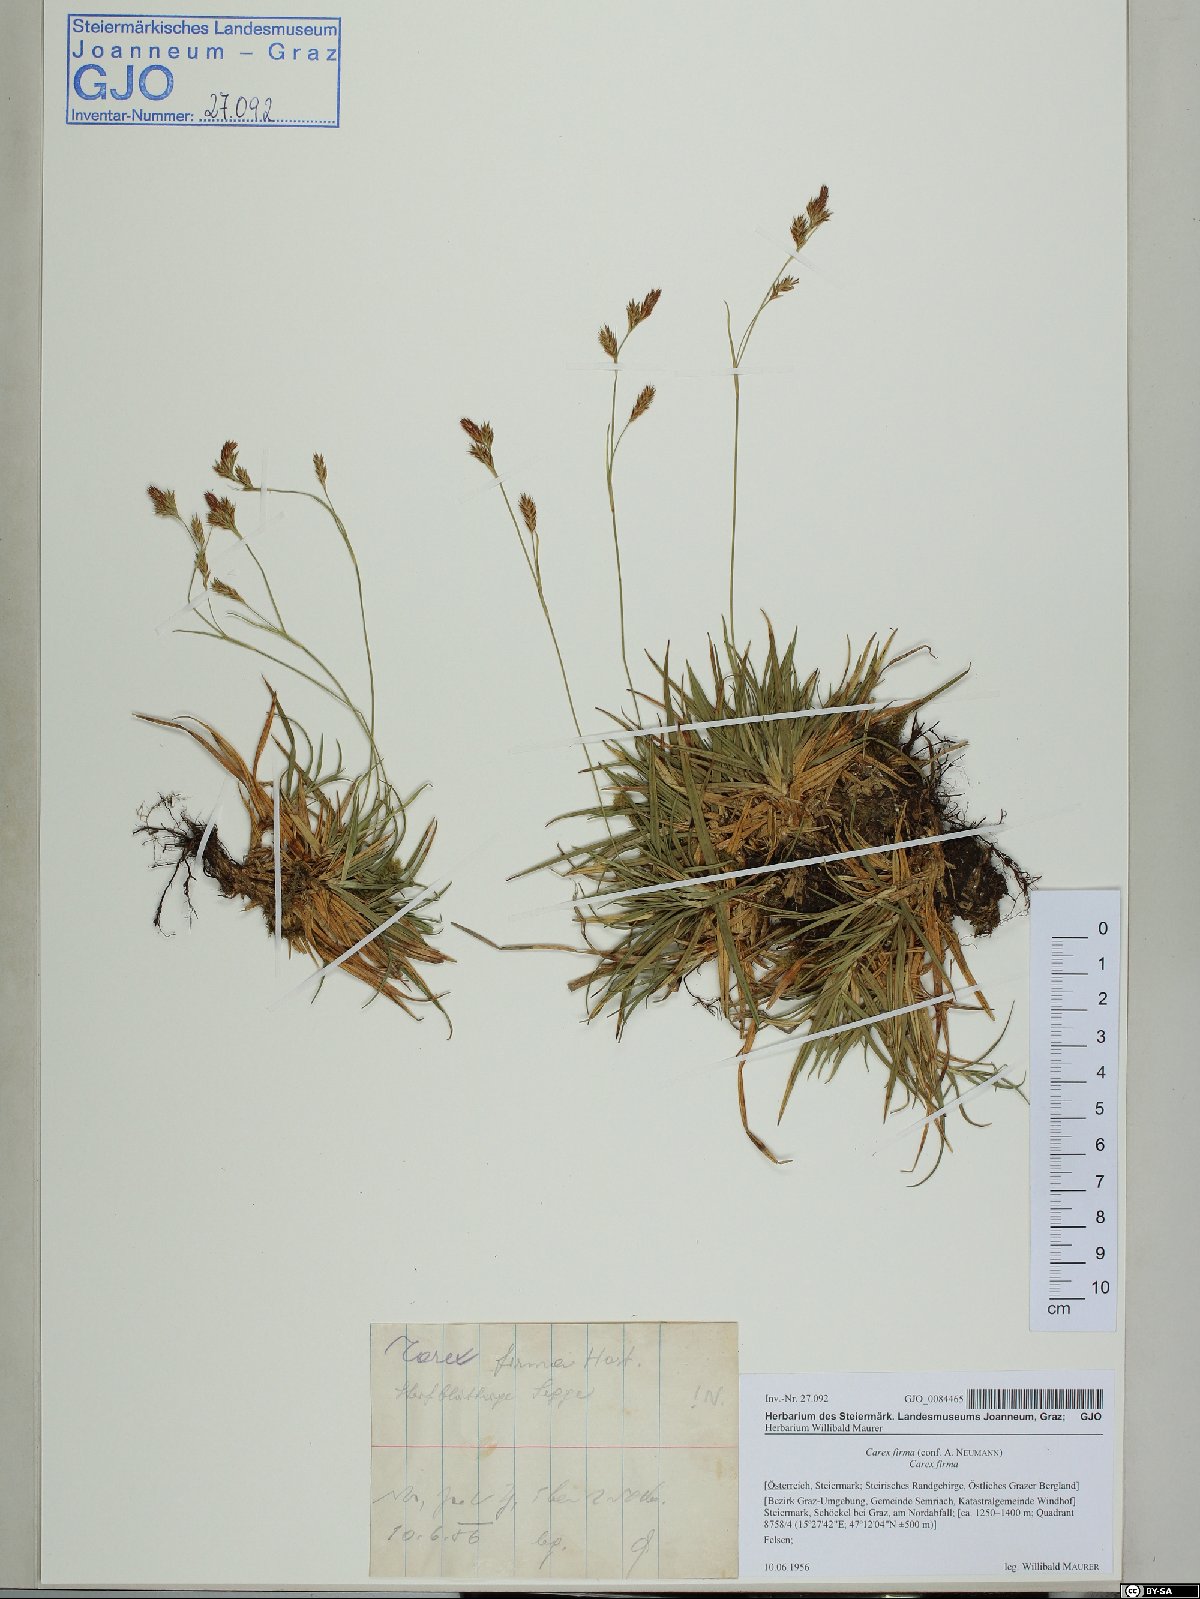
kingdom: Plantae
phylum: Tracheophyta
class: Liliopsida
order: Poales
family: Cyperaceae
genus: Carex
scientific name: Carex firma
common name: Dwarf pillow sedge
